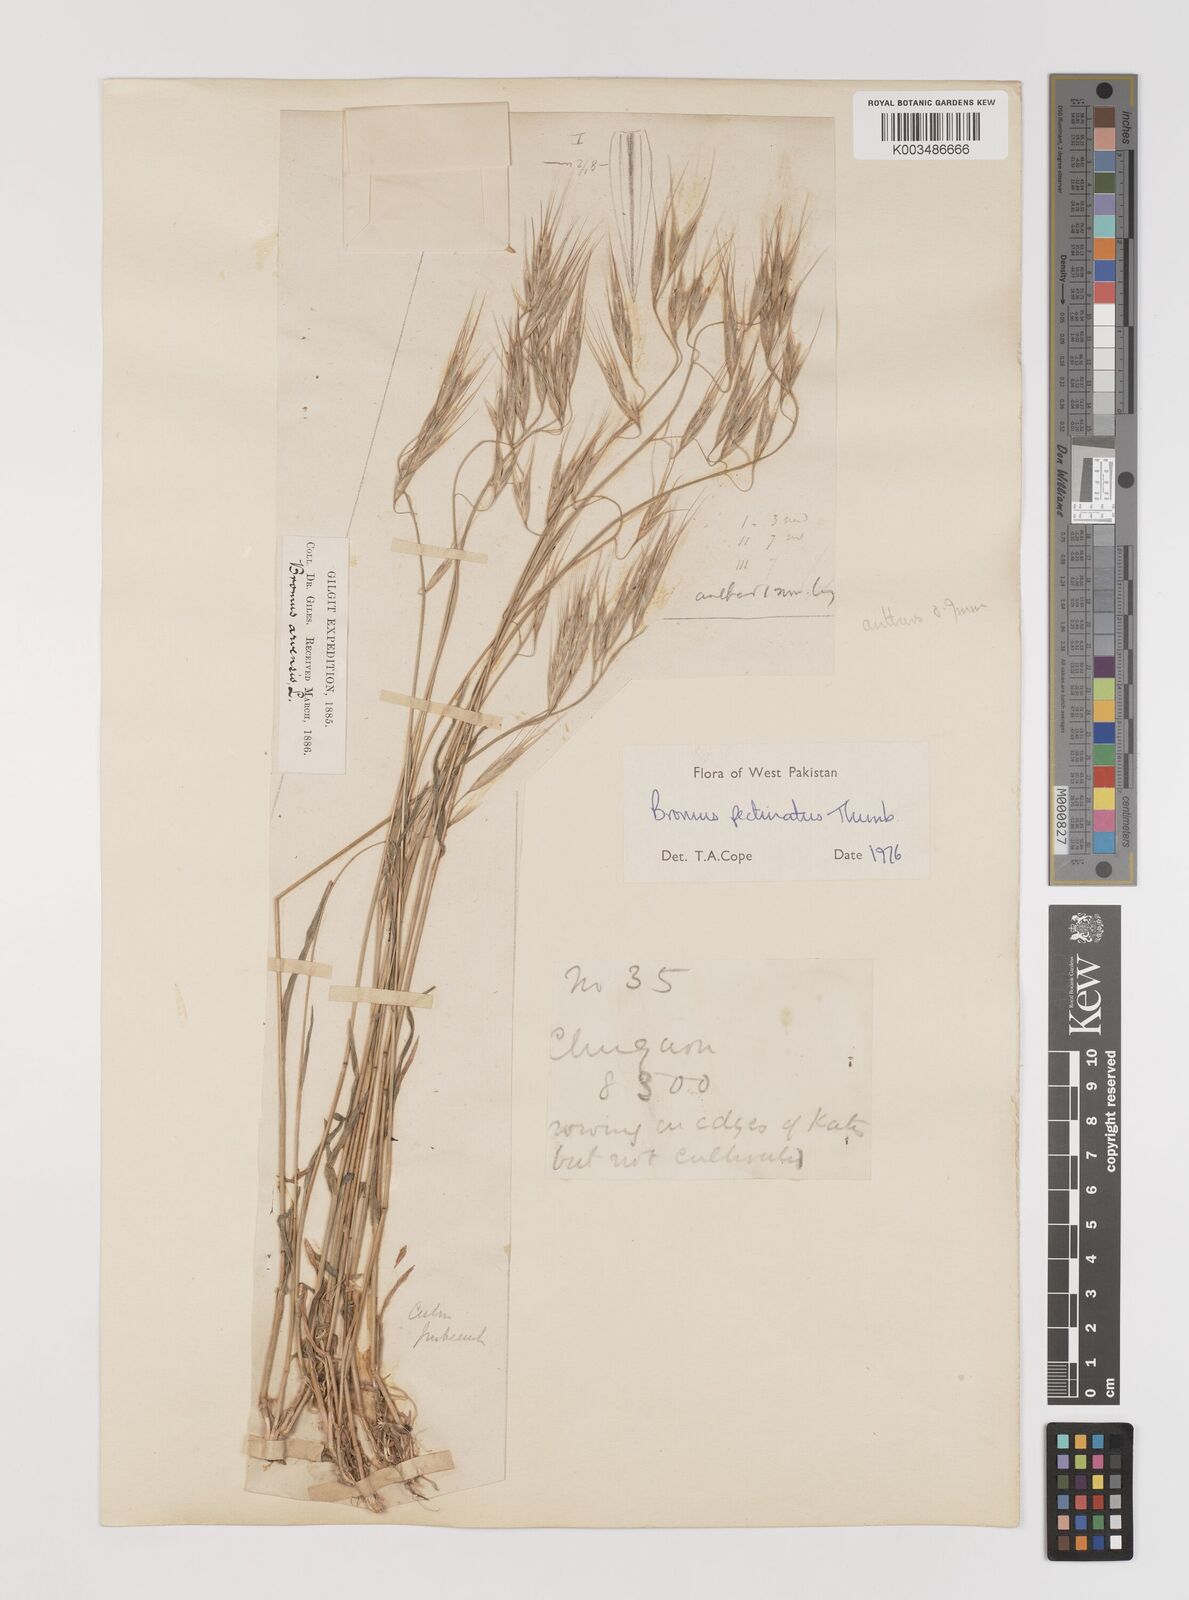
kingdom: Plantae
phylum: Tracheophyta
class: Liliopsida
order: Poales
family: Poaceae
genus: Bromus
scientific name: Bromus pectinatus
